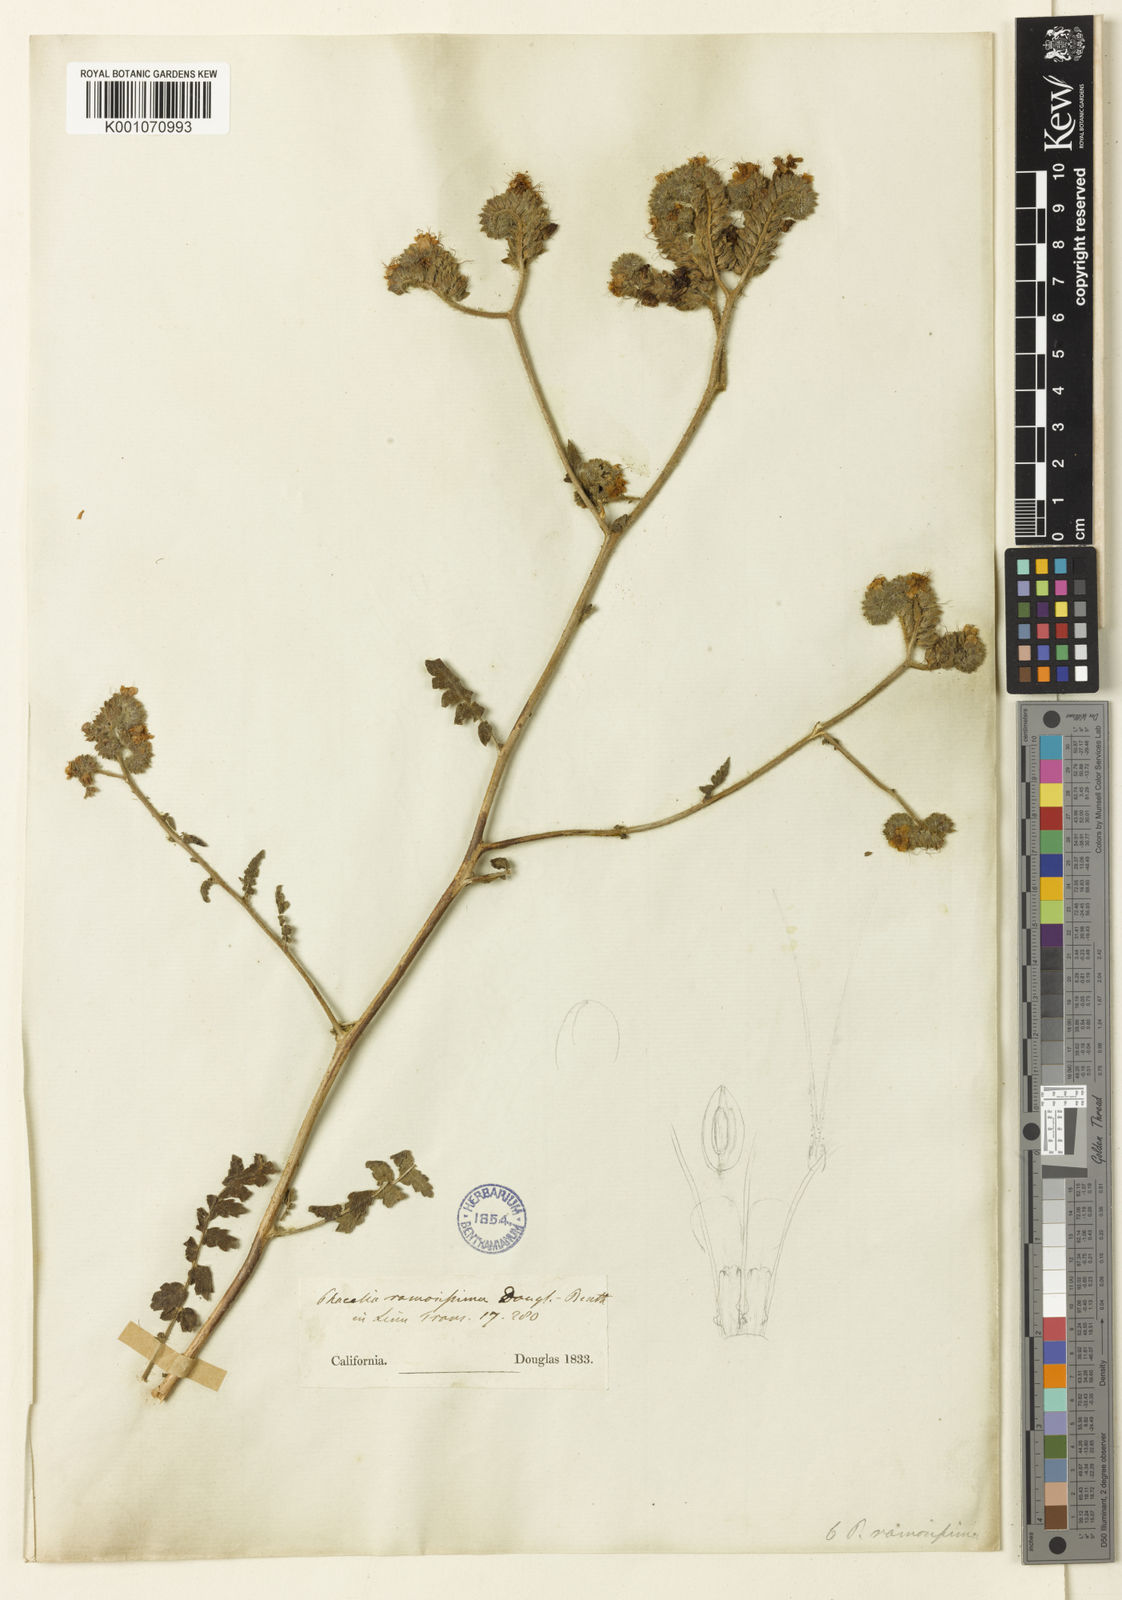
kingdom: Plantae
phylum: Tracheophyta
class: Magnoliopsida
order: Boraginales
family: Hydrophyllaceae
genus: Phacelia
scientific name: Phacelia ramosissima
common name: Branching phacelia
